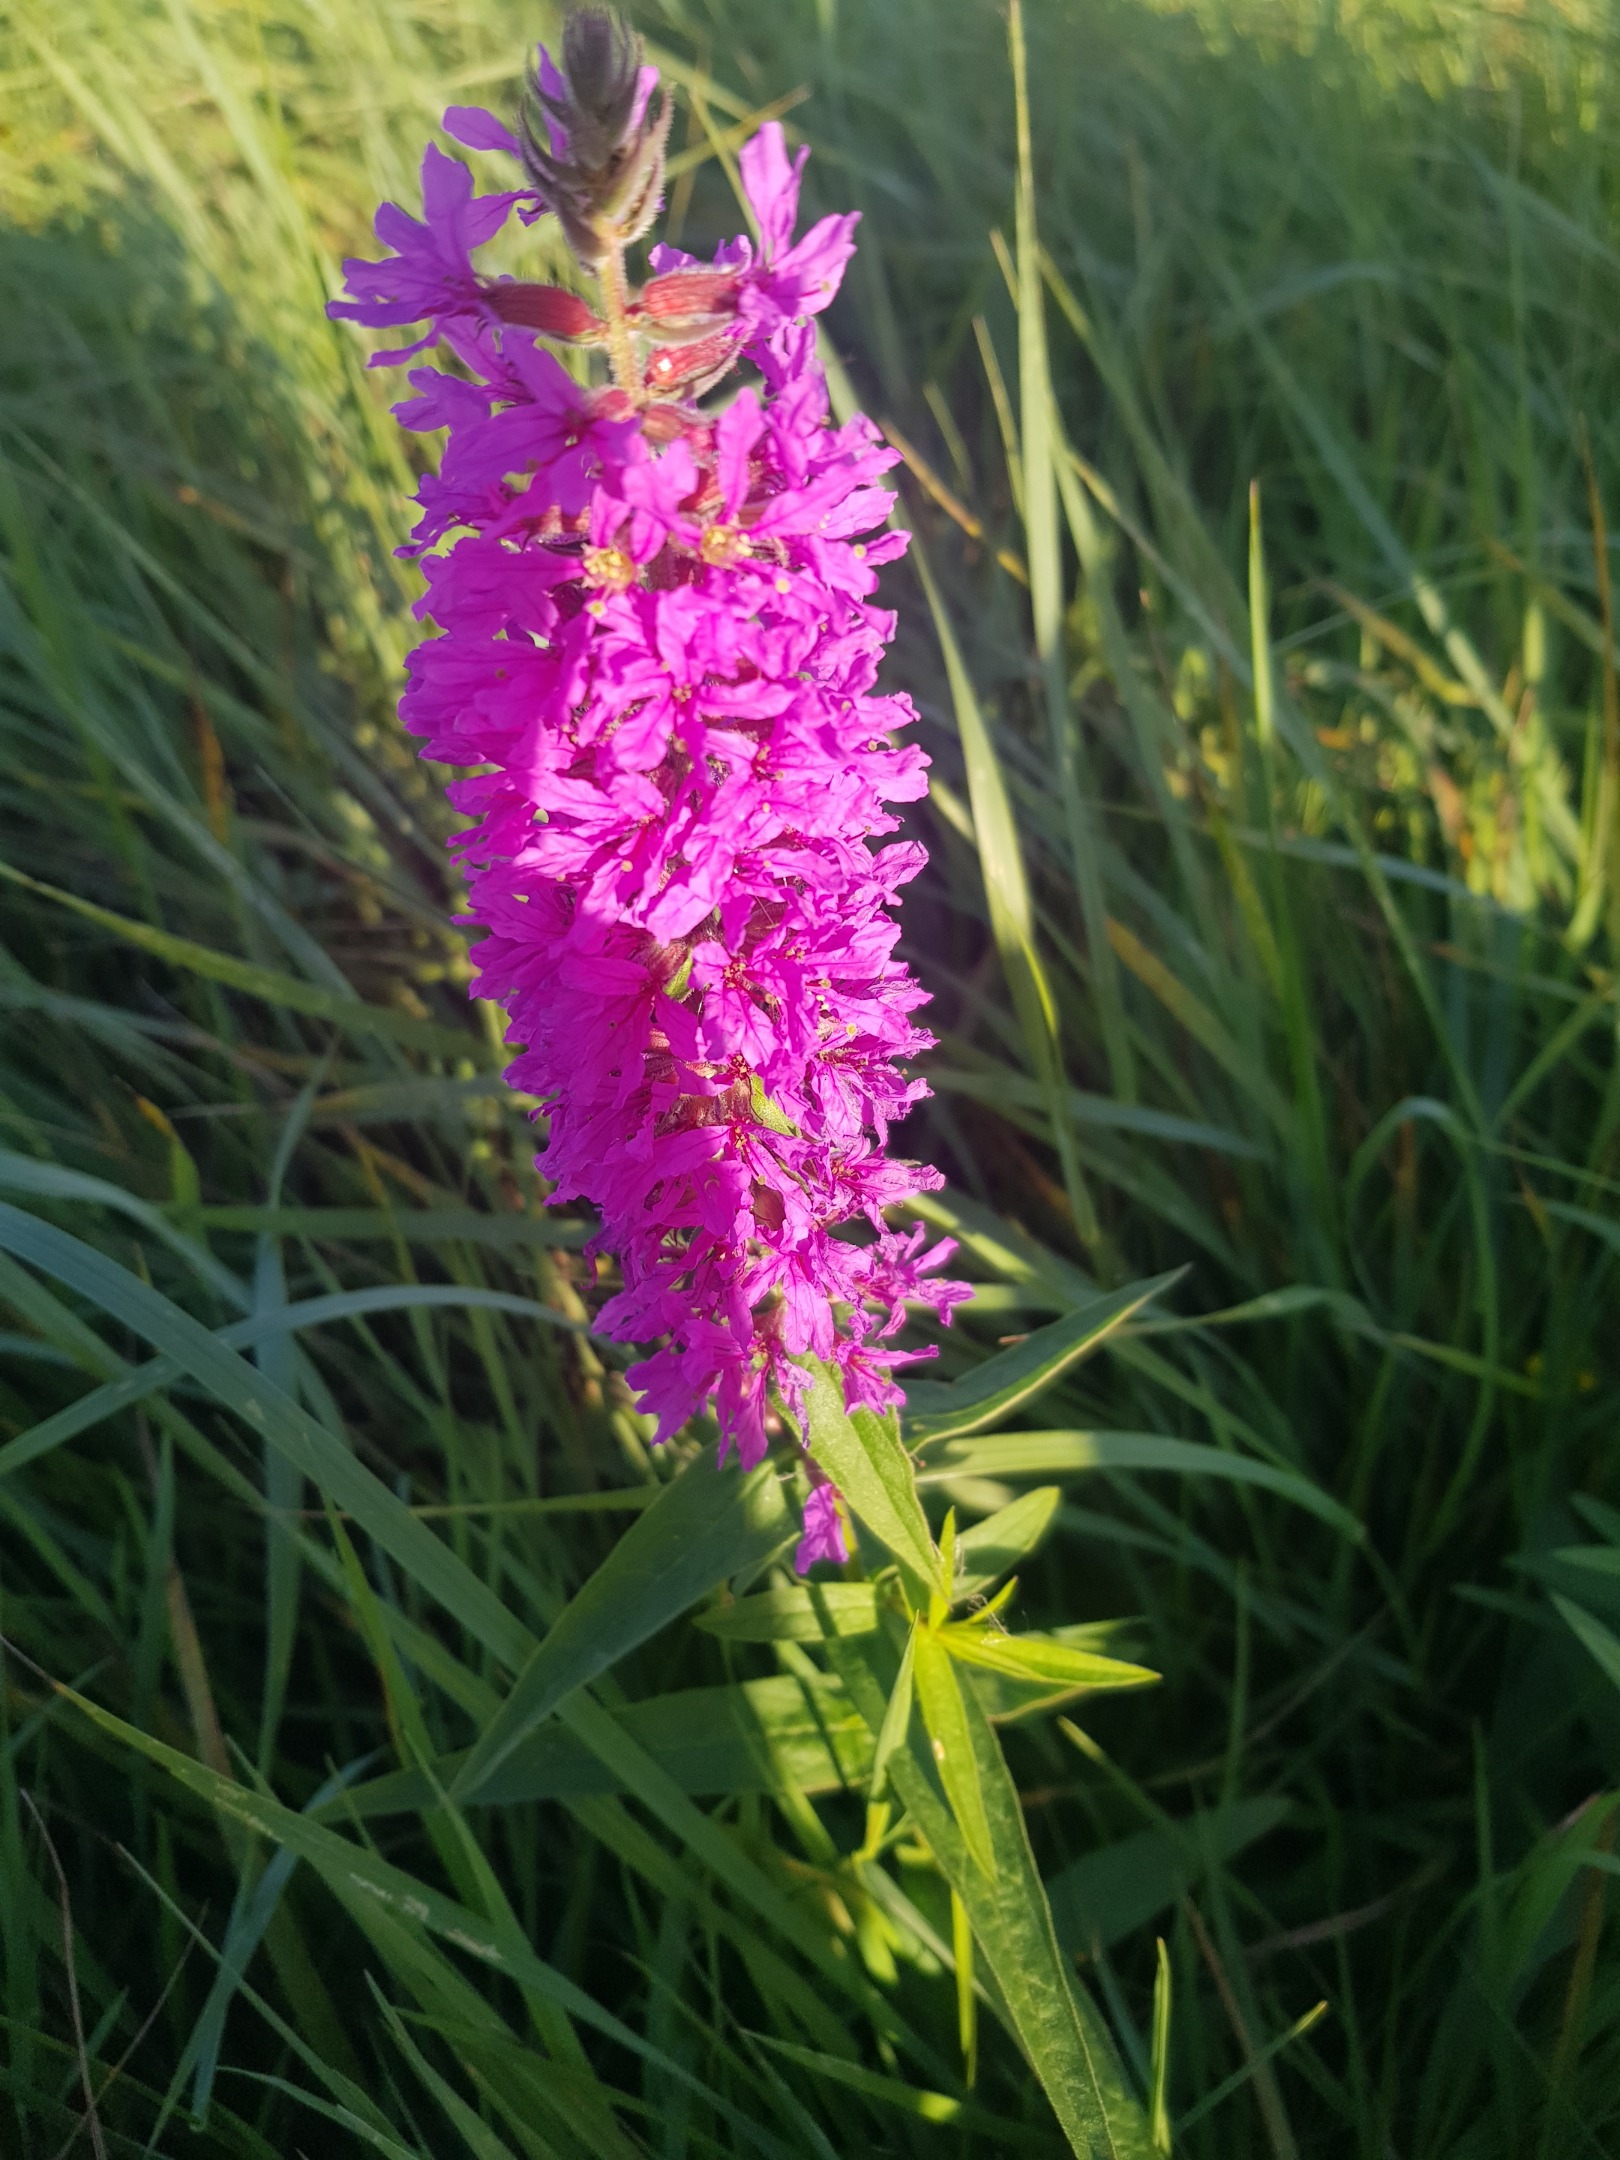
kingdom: Plantae
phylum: Tracheophyta
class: Magnoliopsida
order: Myrtales
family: Lythraceae
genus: Lythrum
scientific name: Lythrum salicaria
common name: Kattehale
